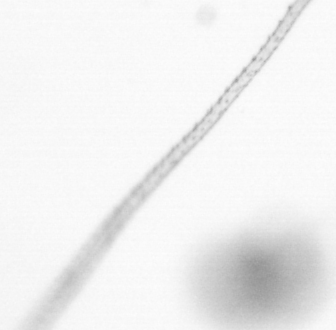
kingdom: Animalia
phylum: Arthropoda
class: Copepoda
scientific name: Copepoda
